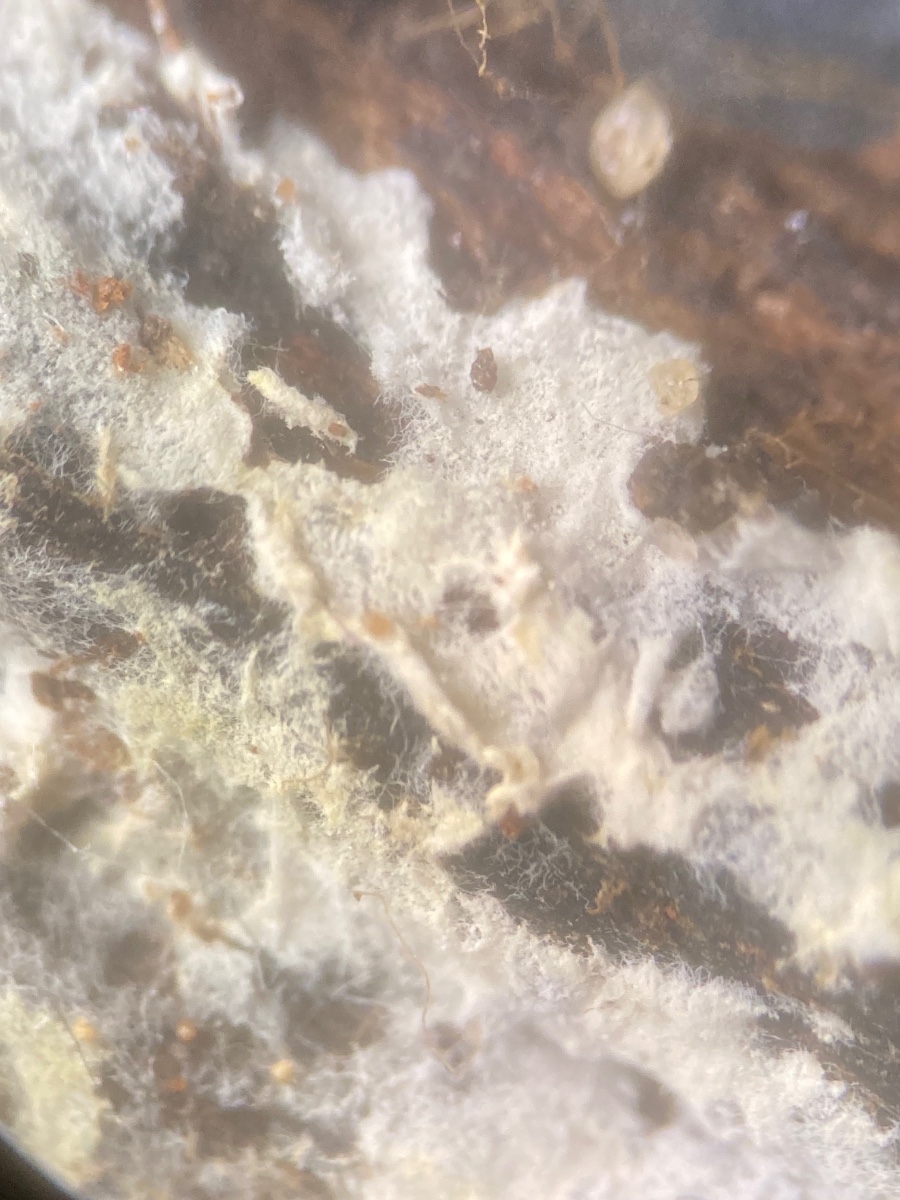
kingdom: Fungi
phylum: Basidiomycota
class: Agaricomycetes
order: Atheliales
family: Atheliaceae
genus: Piloderma
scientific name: Piloderma lanatum
